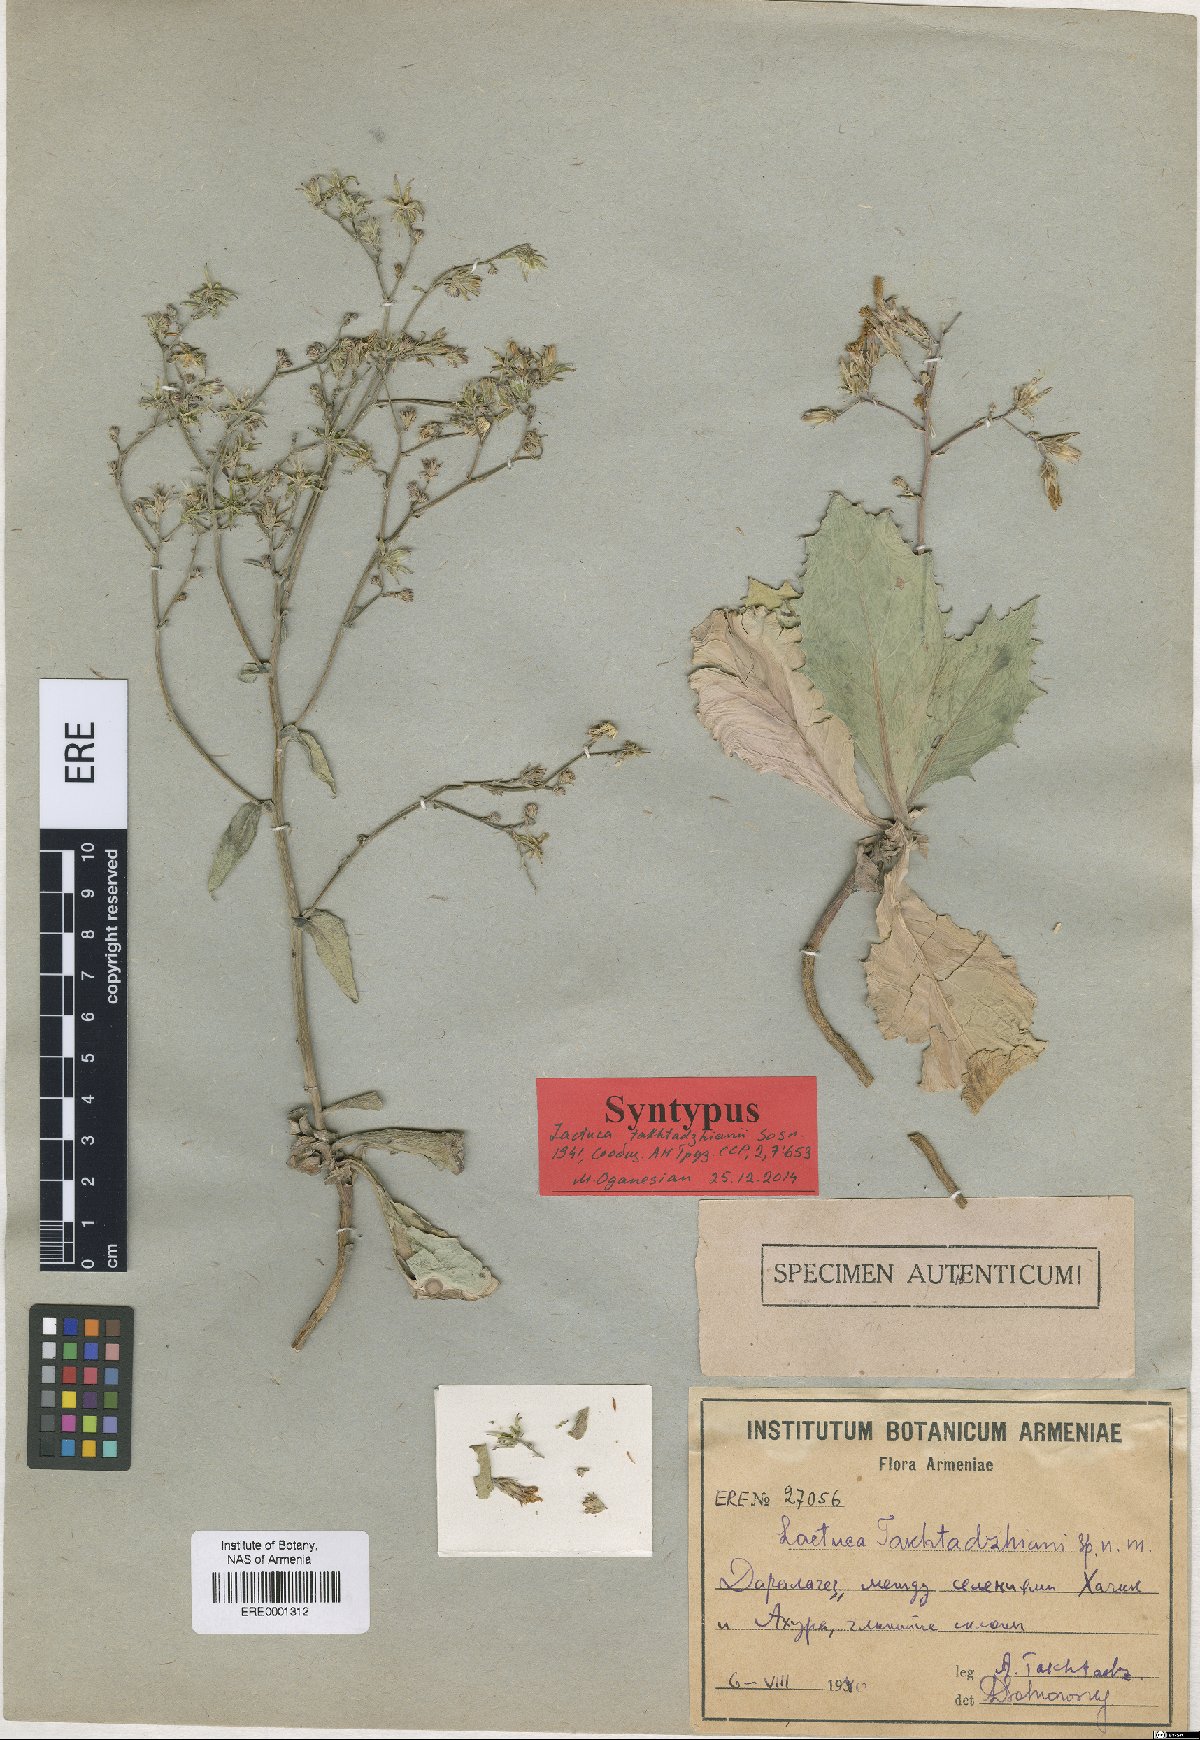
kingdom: Plantae
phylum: Tracheophyta
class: Magnoliopsida
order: Asterales
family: Asteraceae
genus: Lactuca
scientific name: Lactuca takhtadzhianii
